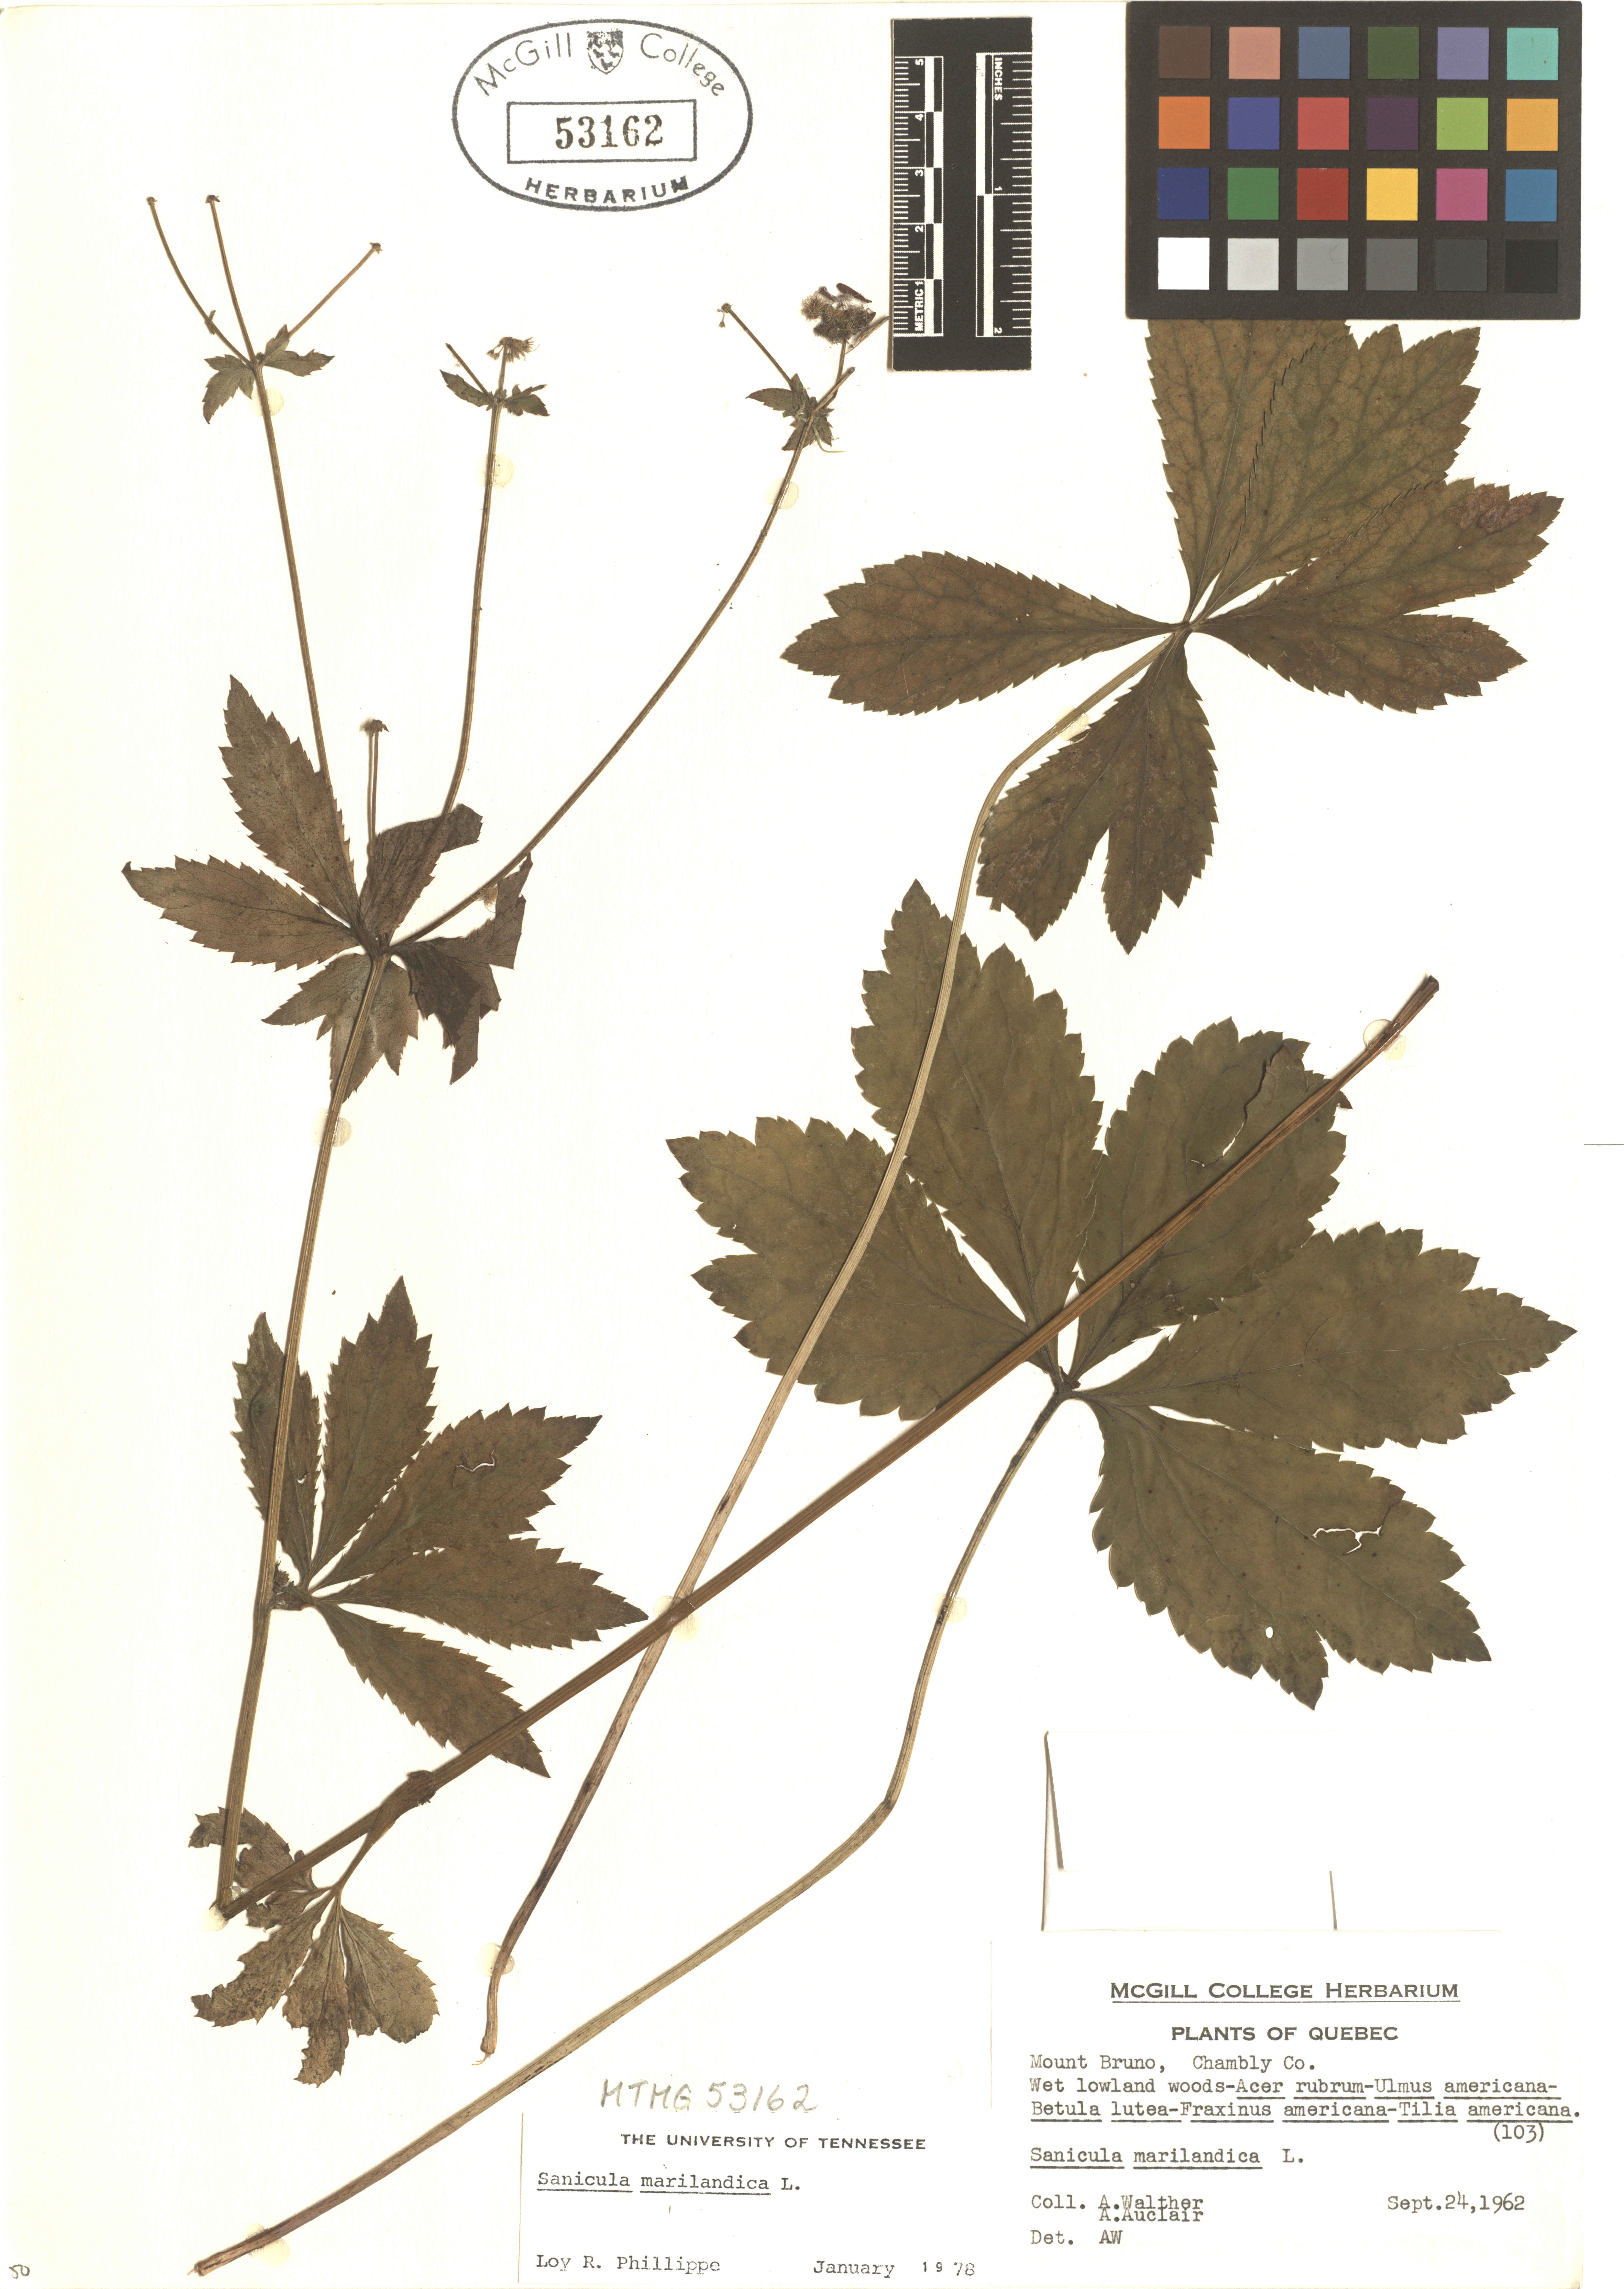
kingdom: Plantae
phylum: Tracheophyta
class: Magnoliopsida
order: Apiales
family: Apiaceae
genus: Sanicula
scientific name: Sanicula marilandica
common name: Black snakeroot
